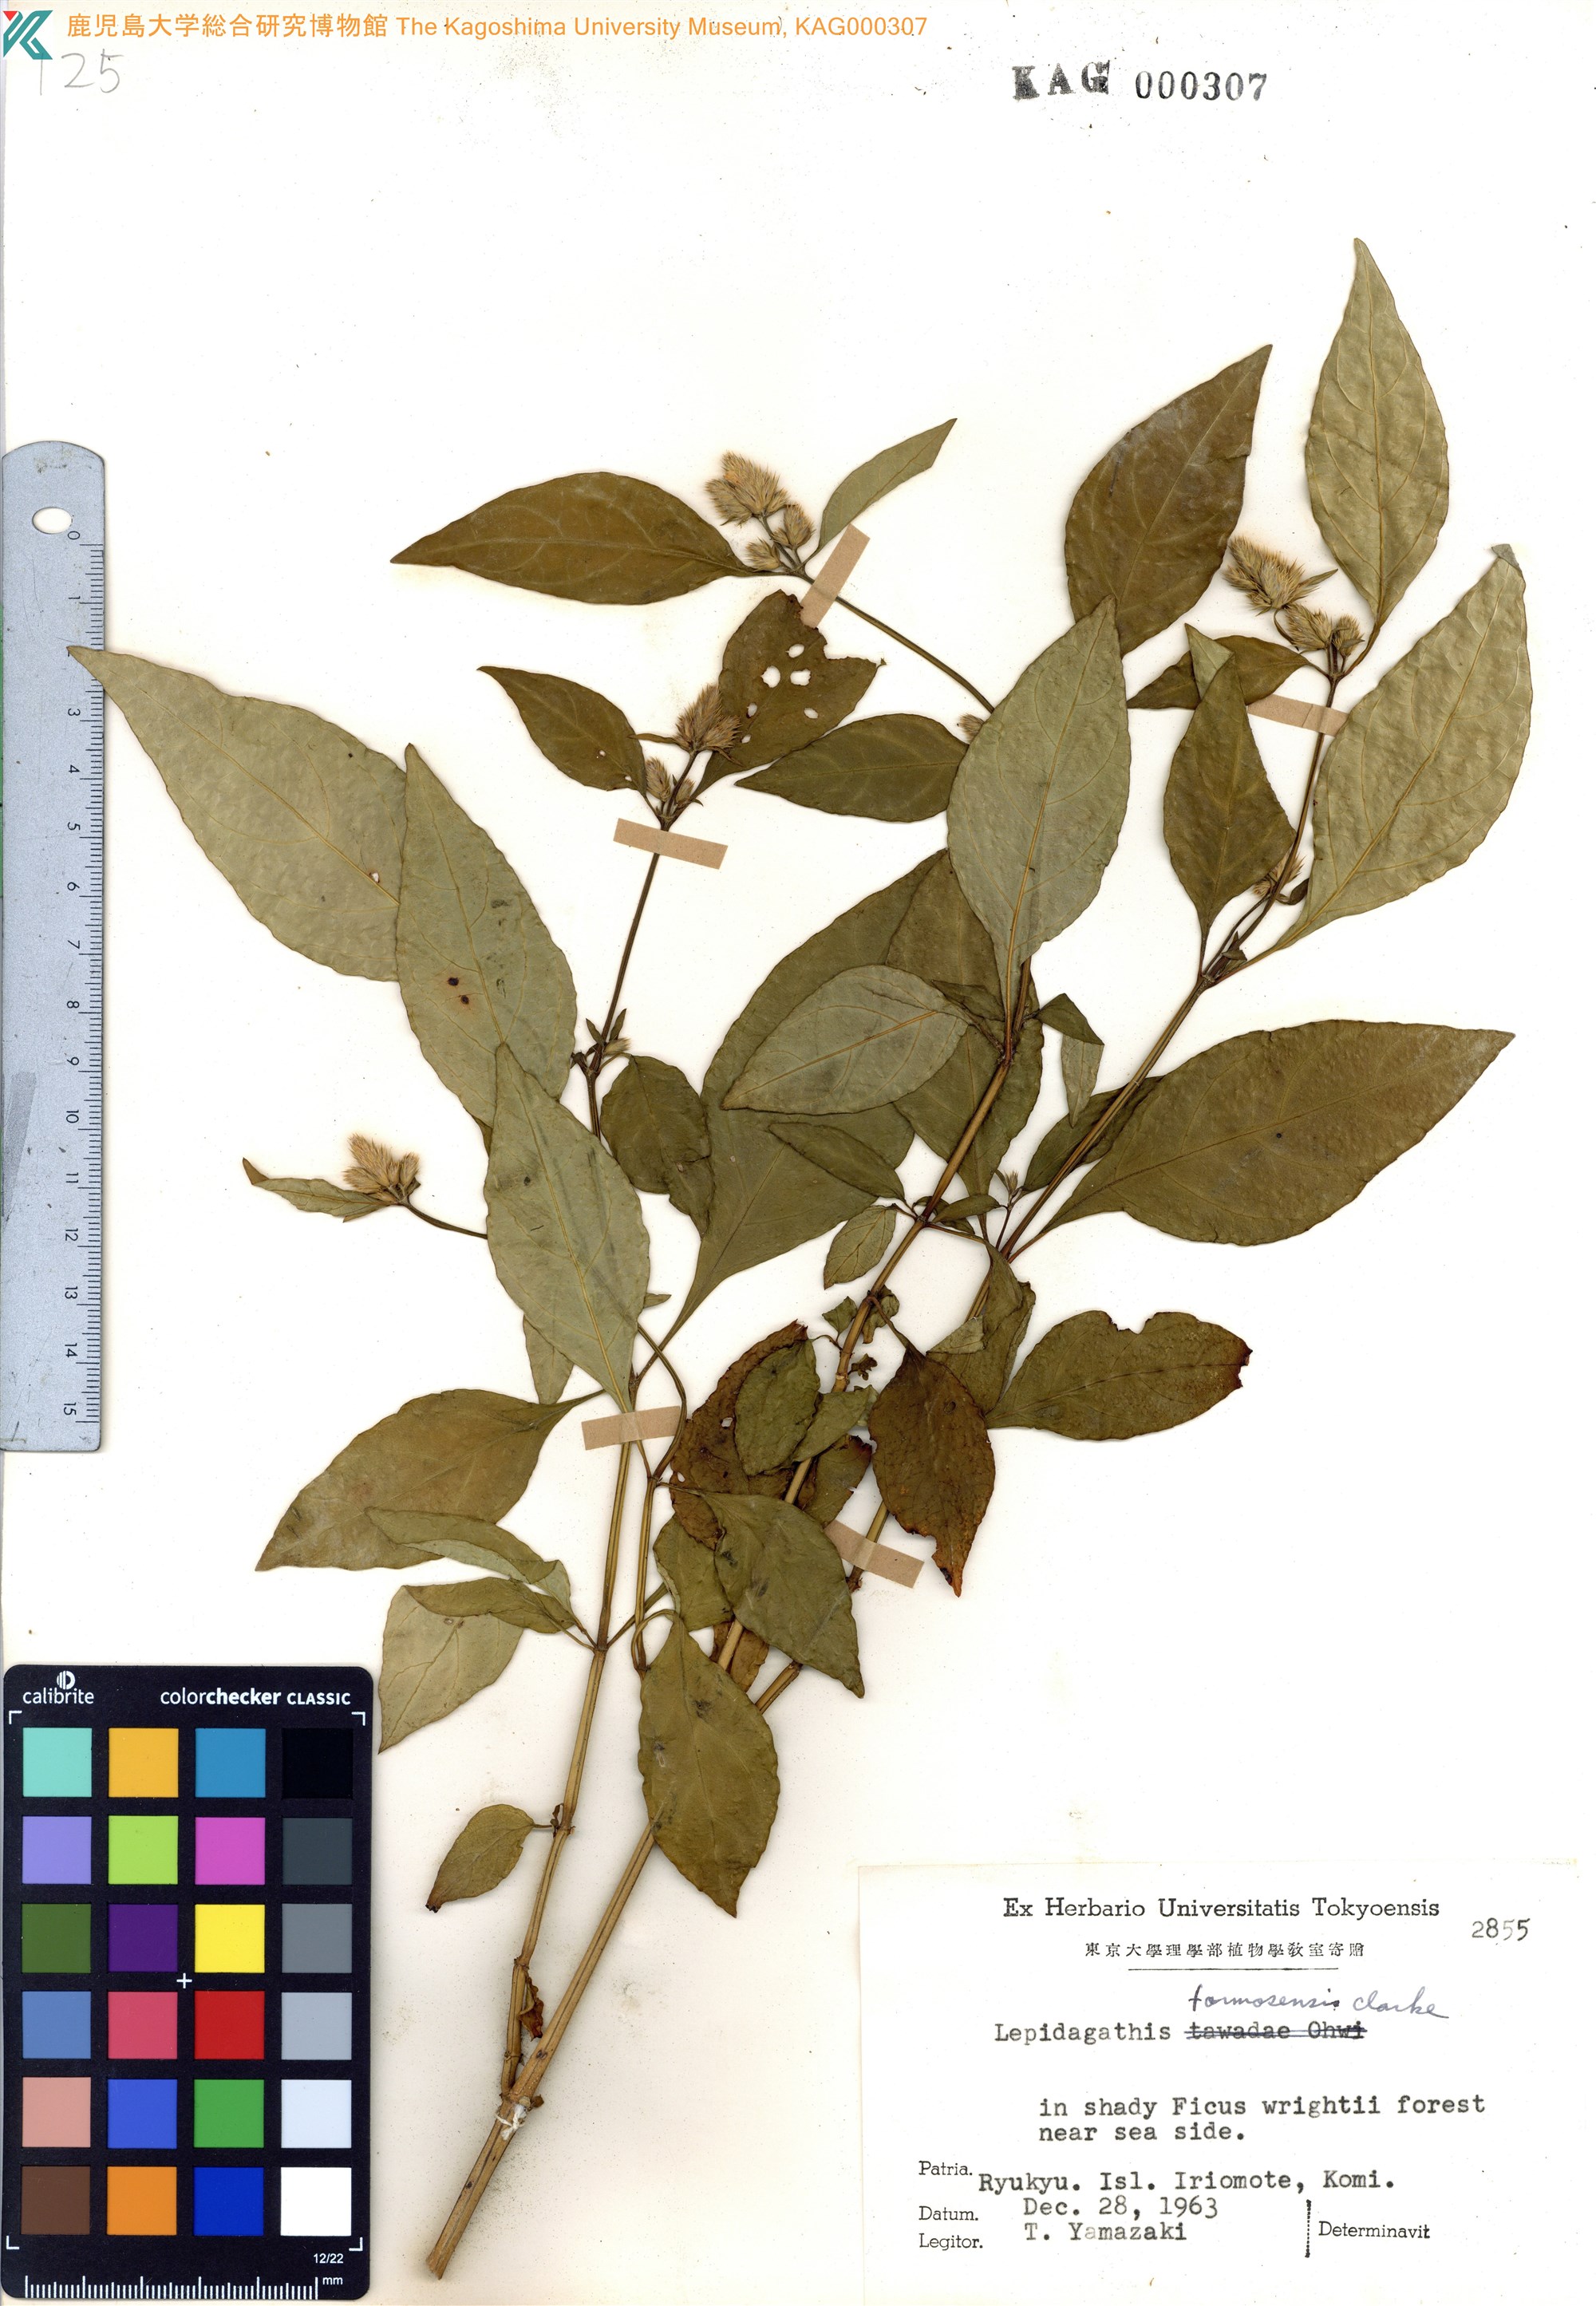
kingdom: Plantae
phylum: Tracheophyta
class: Magnoliopsida
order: Lamiales
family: Acanthaceae
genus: Lepidagathis
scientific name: Lepidagathis formosensis
